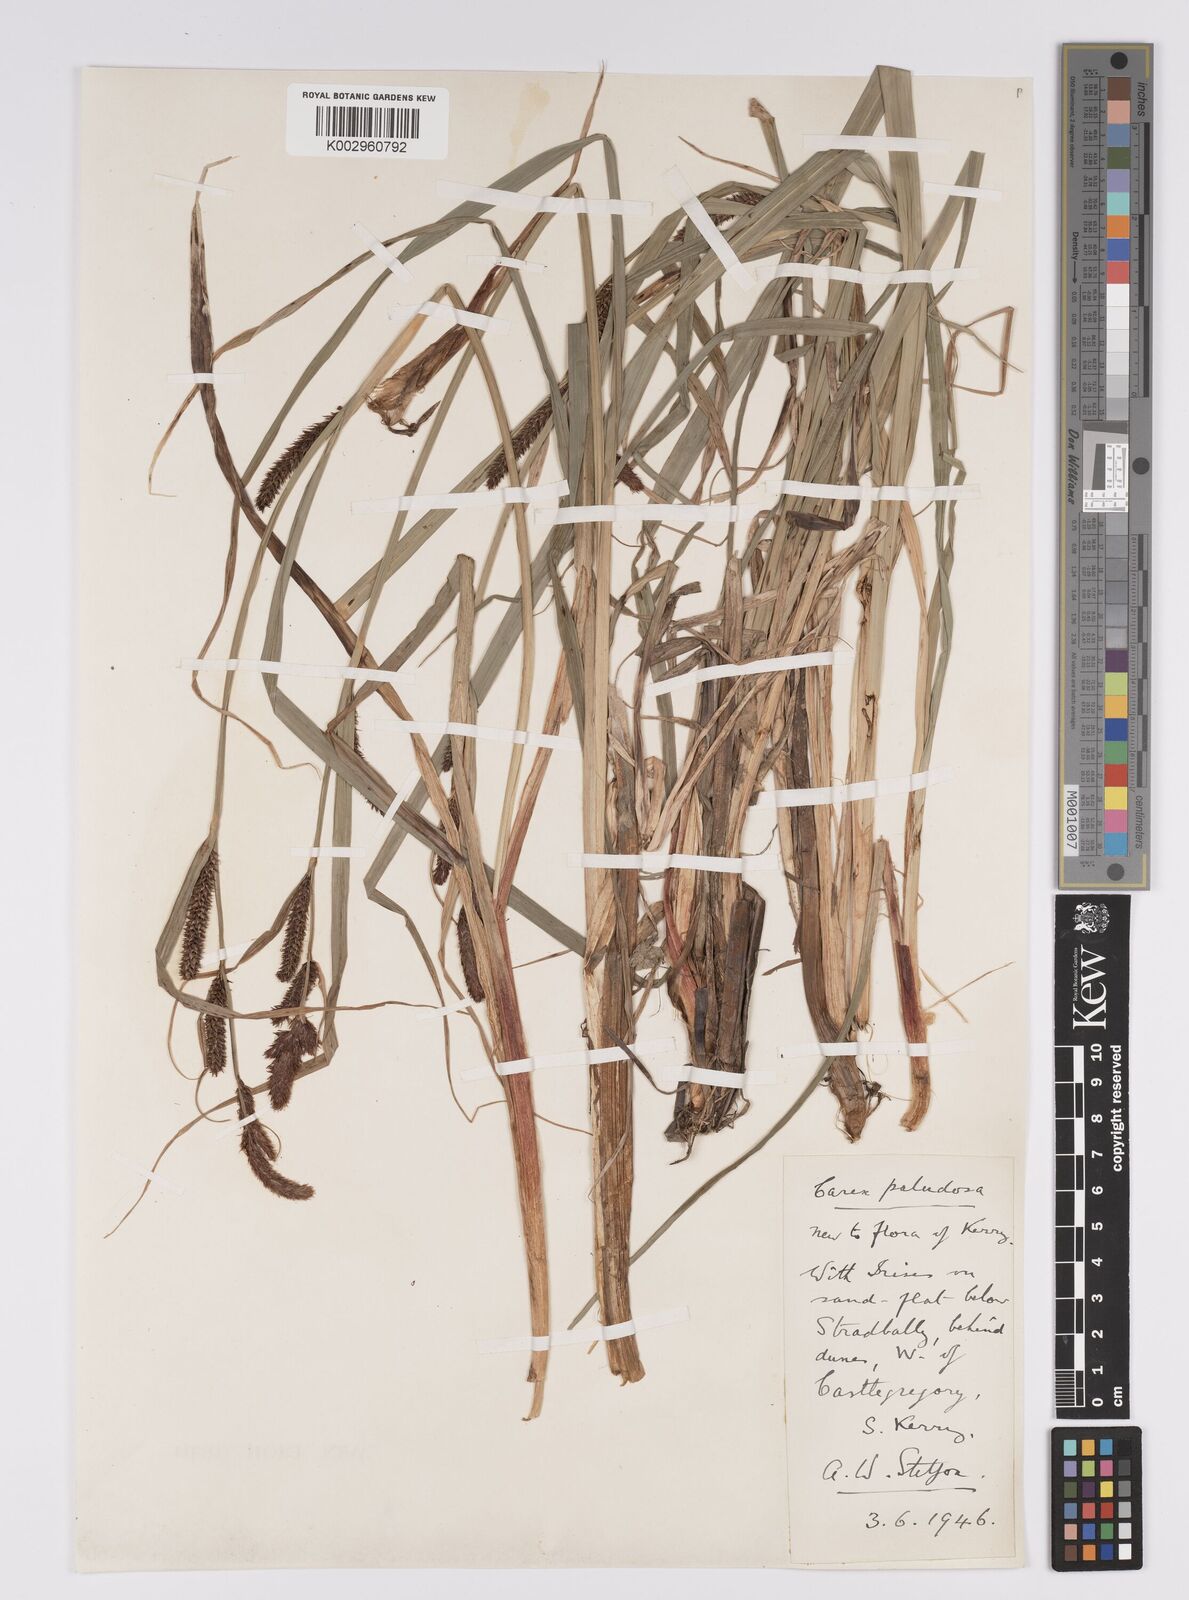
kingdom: Plantae
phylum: Tracheophyta
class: Liliopsida
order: Poales
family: Cyperaceae
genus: Carex
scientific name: Carex acutiformis
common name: Lesser pond-sedge
